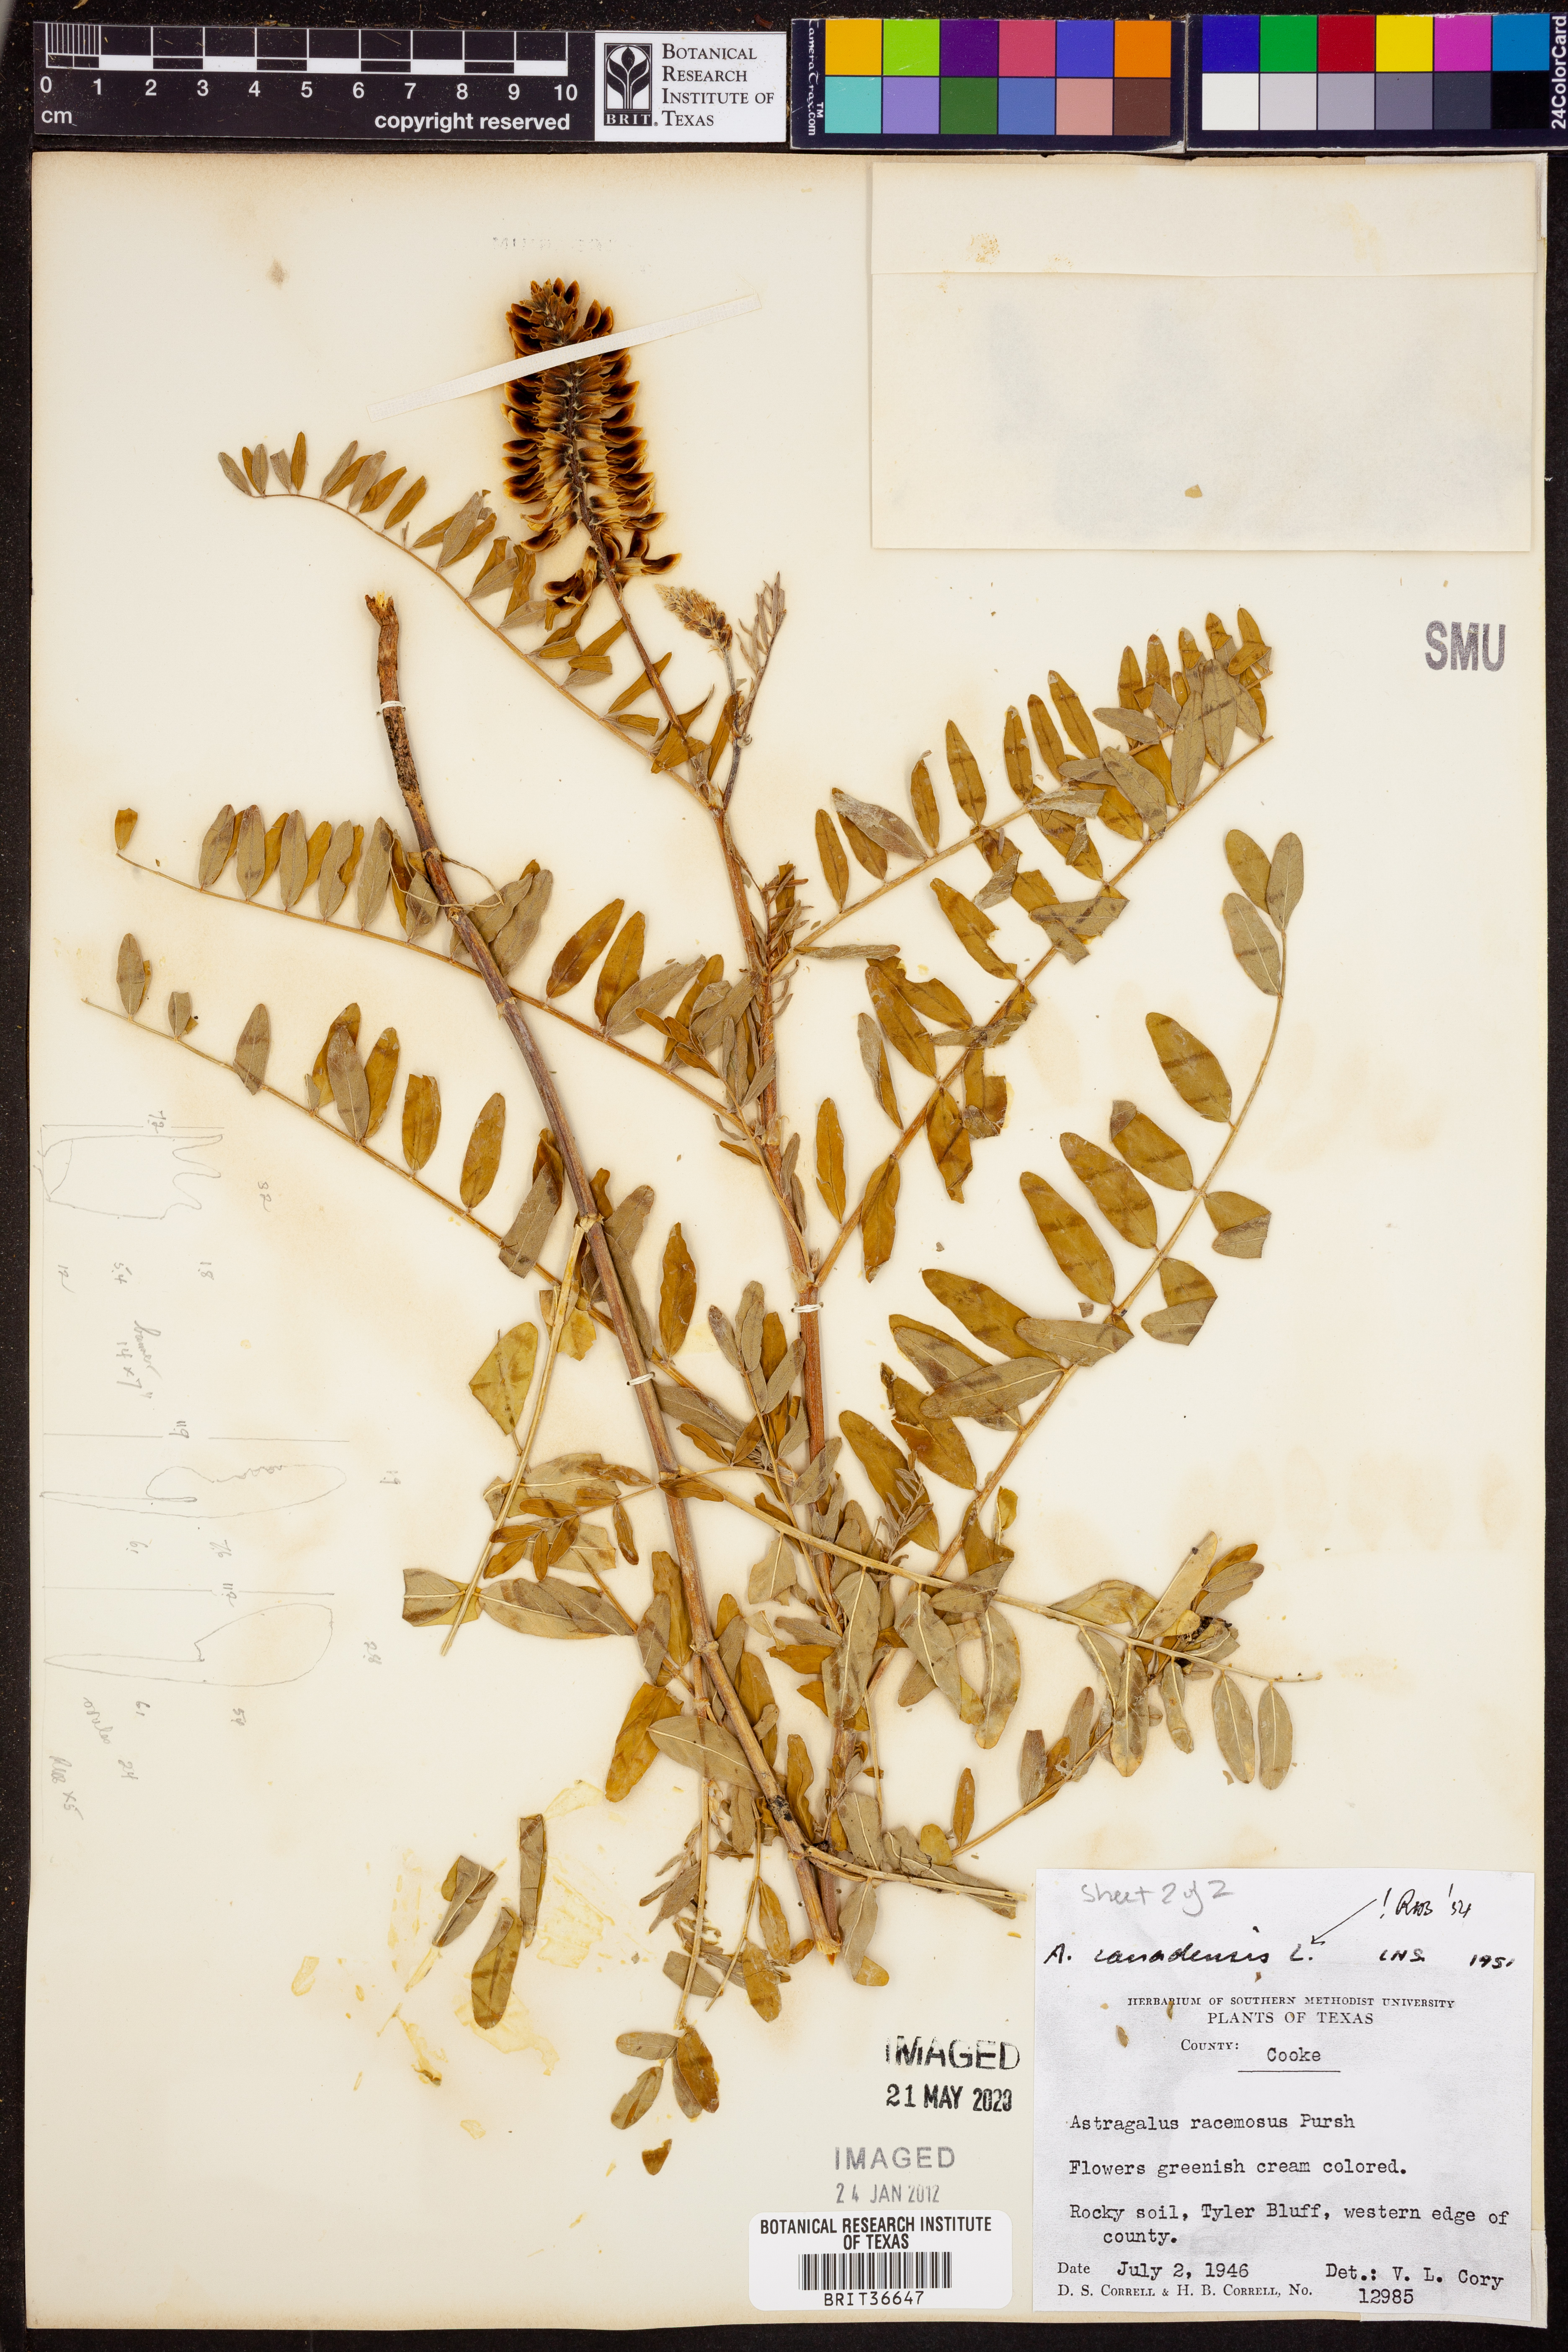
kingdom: Plantae
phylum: Tracheophyta
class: Magnoliopsida
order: Fabales
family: Fabaceae
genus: Astragalus
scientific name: Astragalus canadensis
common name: Canada milk-vetch
